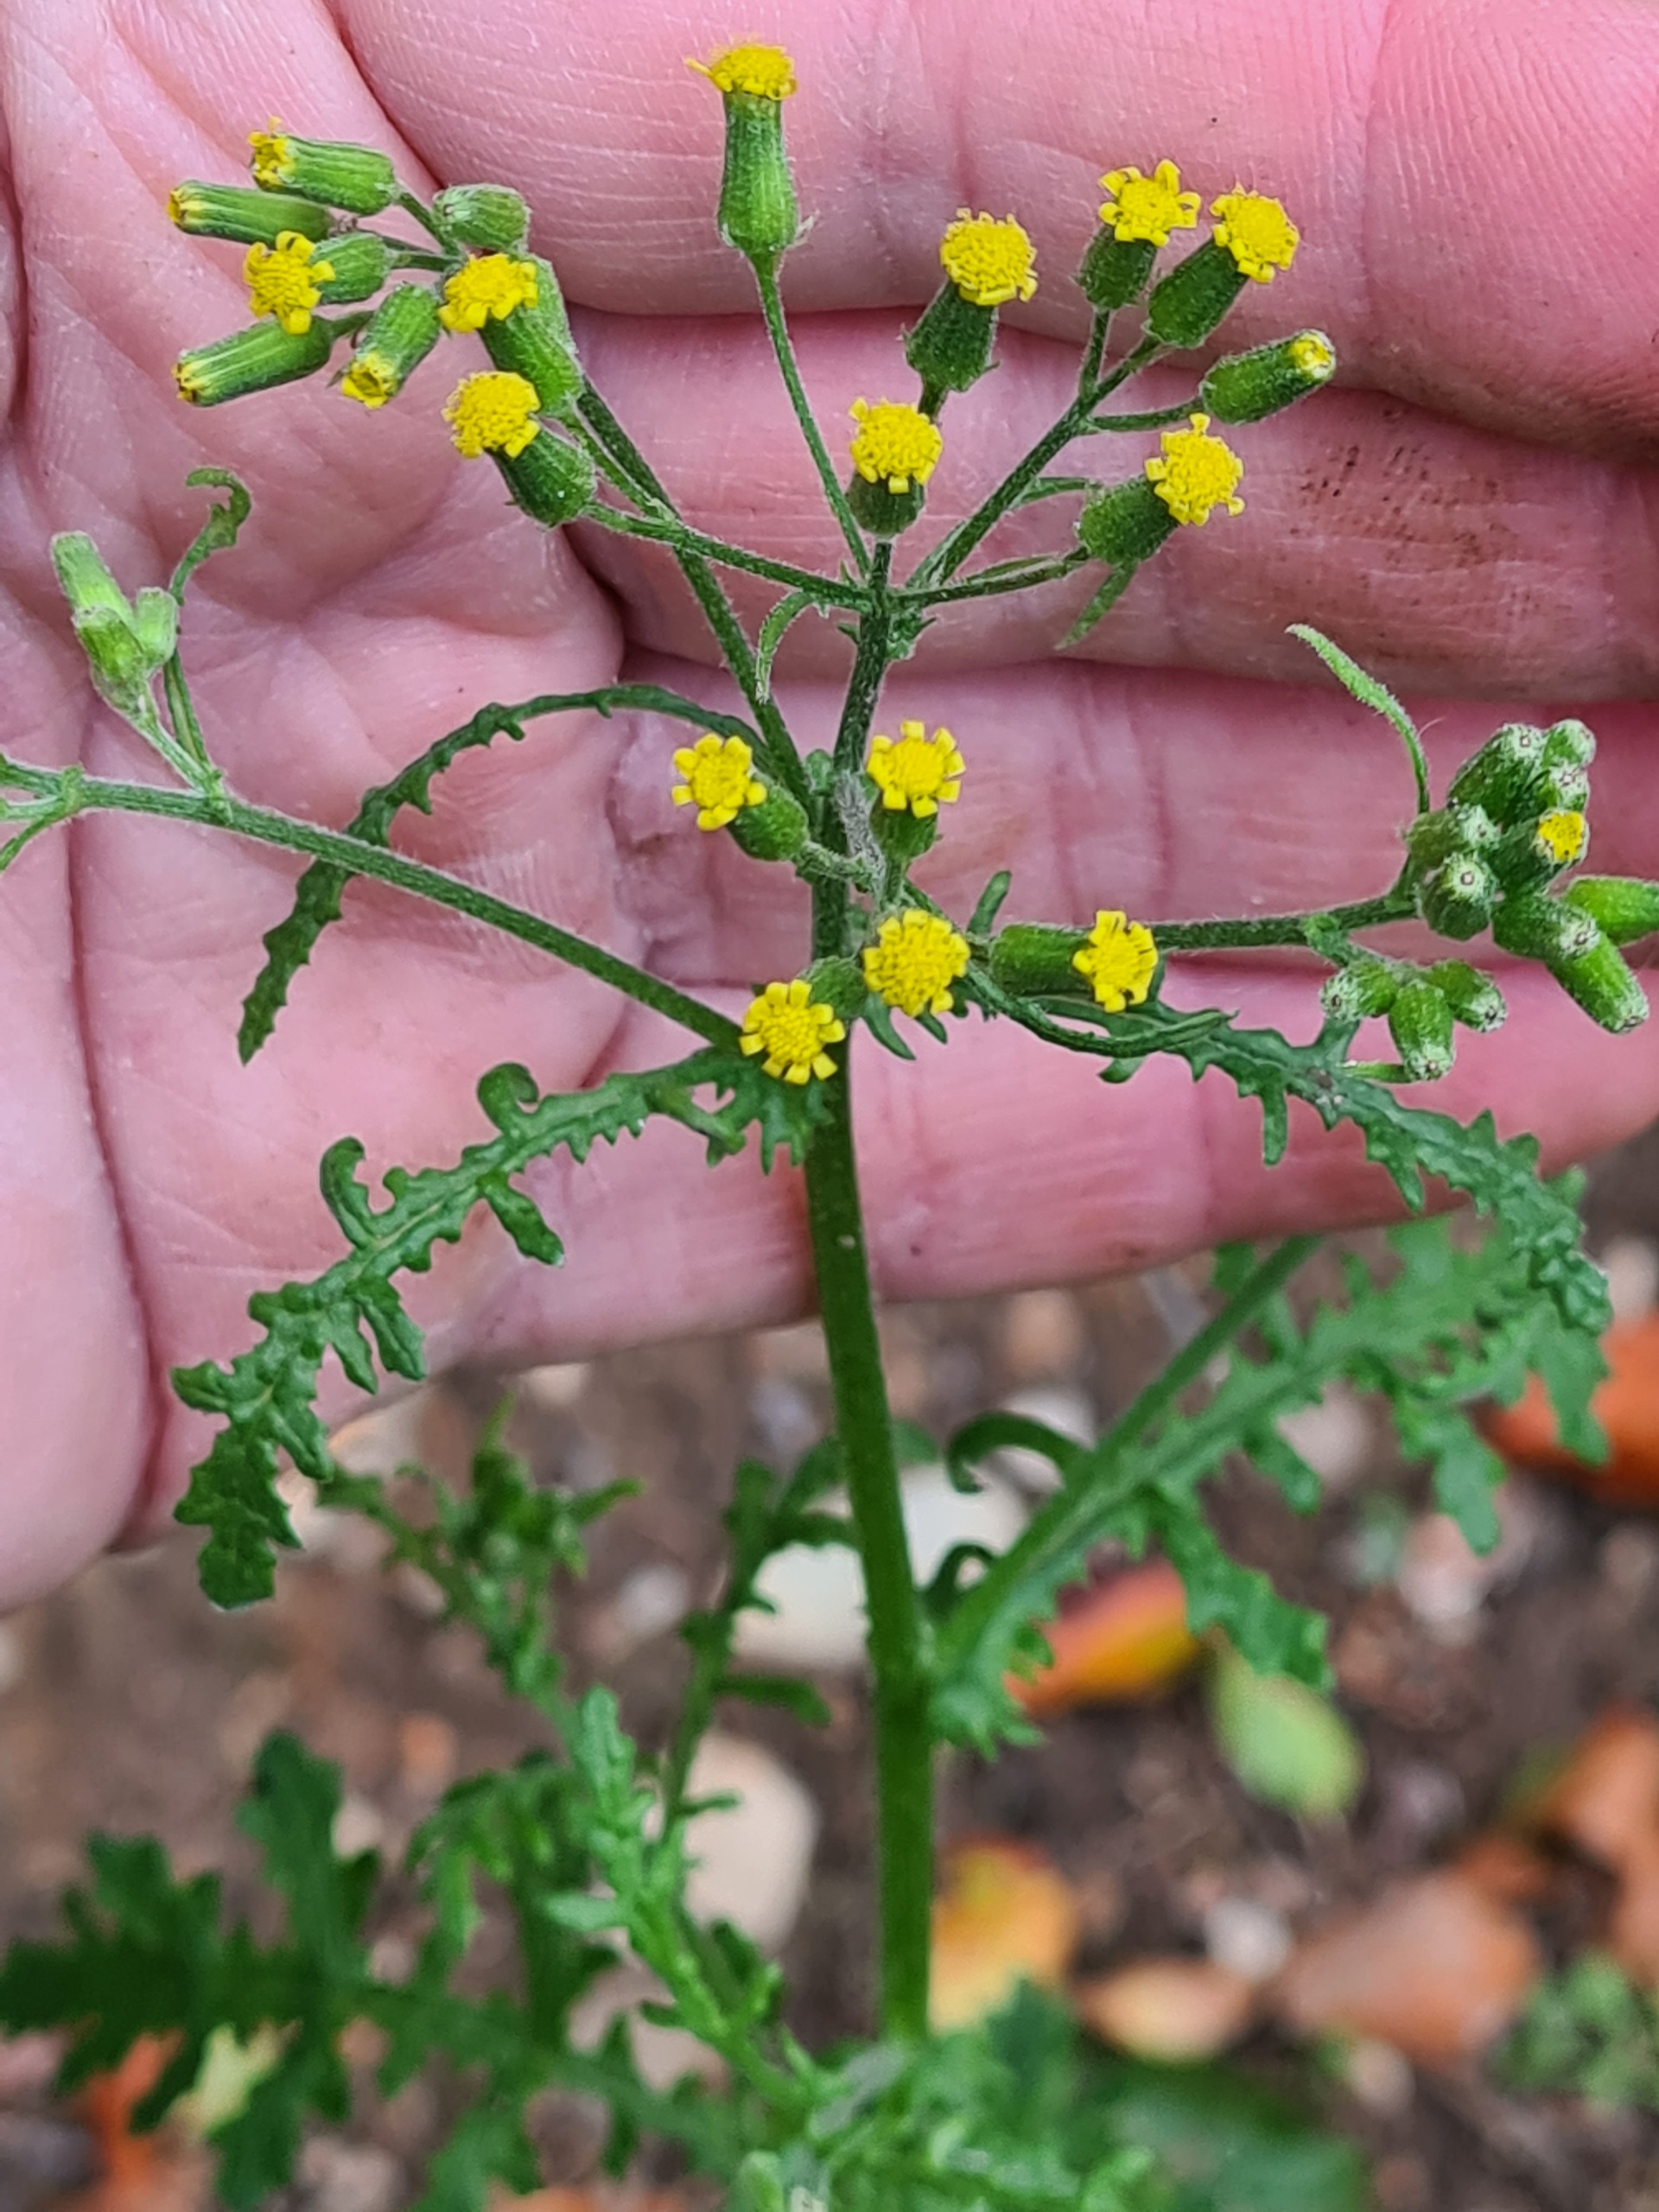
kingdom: Plantae
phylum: Tracheophyta
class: Magnoliopsida
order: Asterales
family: Asteraceae
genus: Senecio
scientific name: Senecio sylvaticus
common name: Skov-brandbæger
